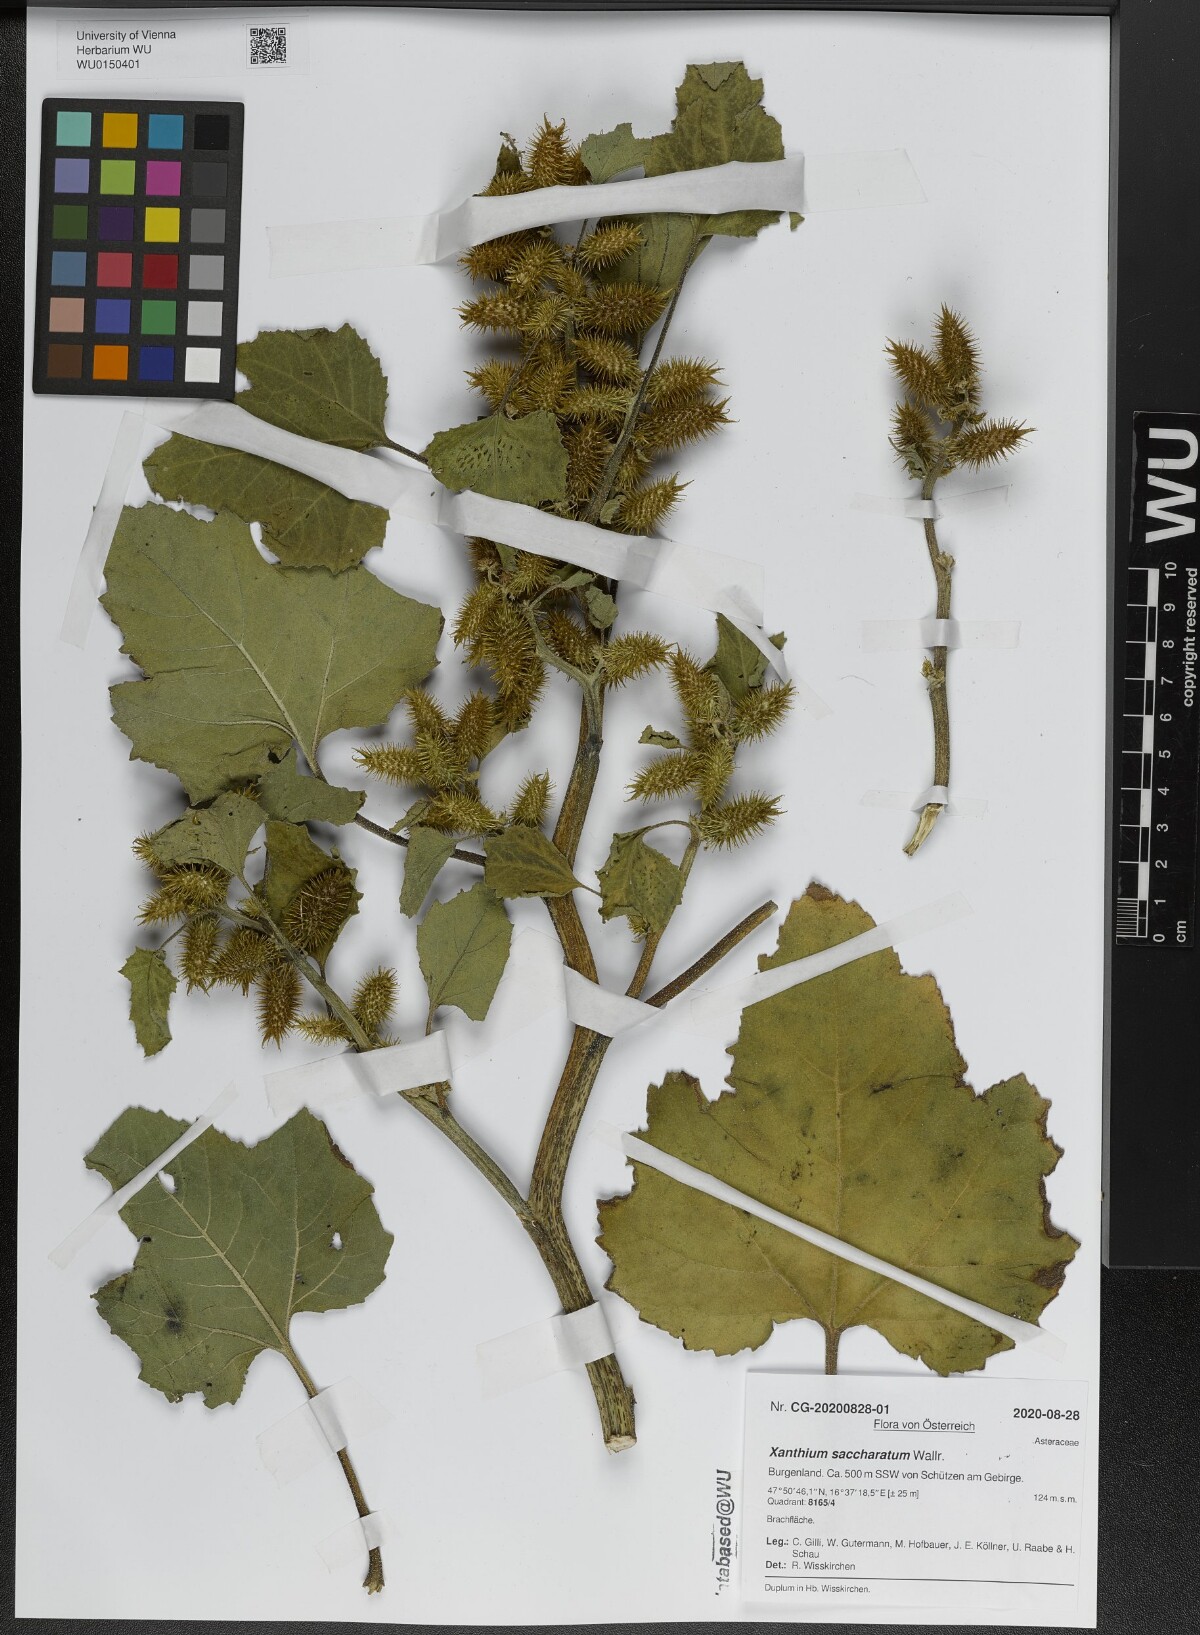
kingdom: Plantae
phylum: Tracheophyta
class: Magnoliopsida
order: Asterales
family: Asteraceae
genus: Xanthium
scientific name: Xanthium orientale
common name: Californian burr
